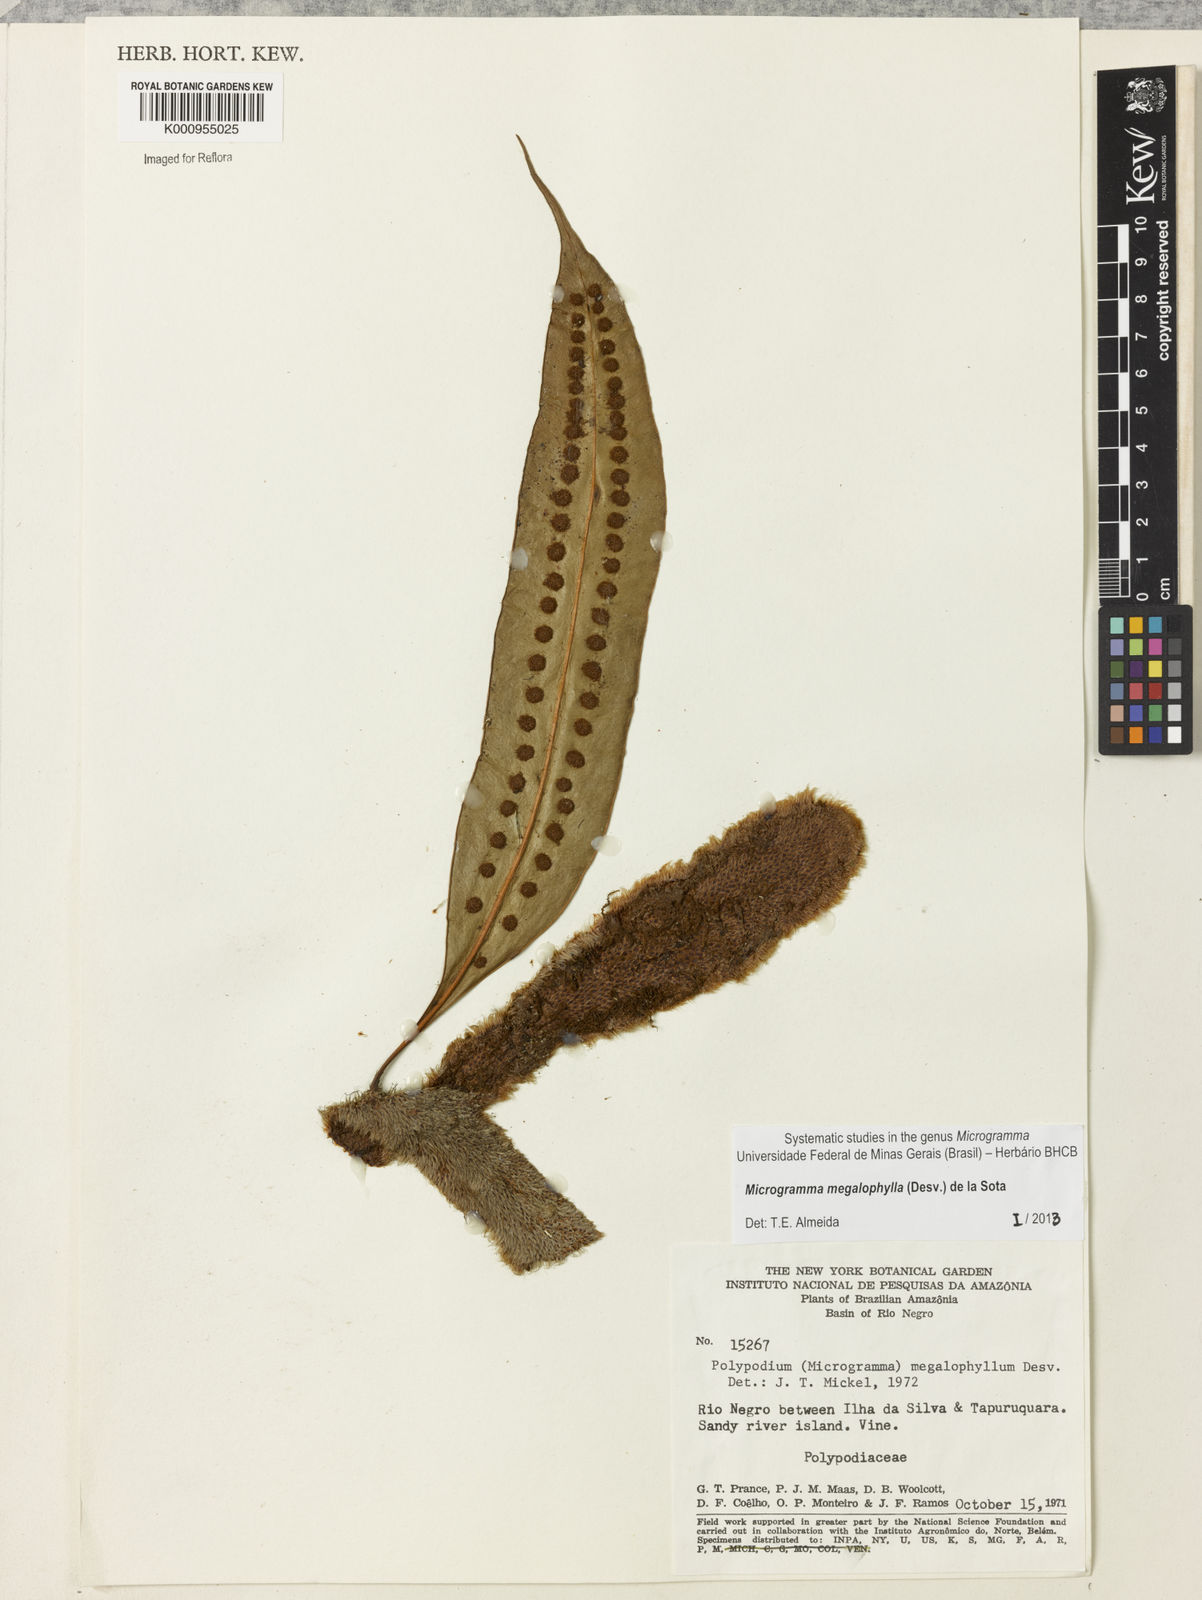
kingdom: Plantae
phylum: Tracheophyta
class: Polypodiopsida
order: Polypodiales
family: Polypodiaceae
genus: Microgramma
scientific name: Microgramma megalophylla
